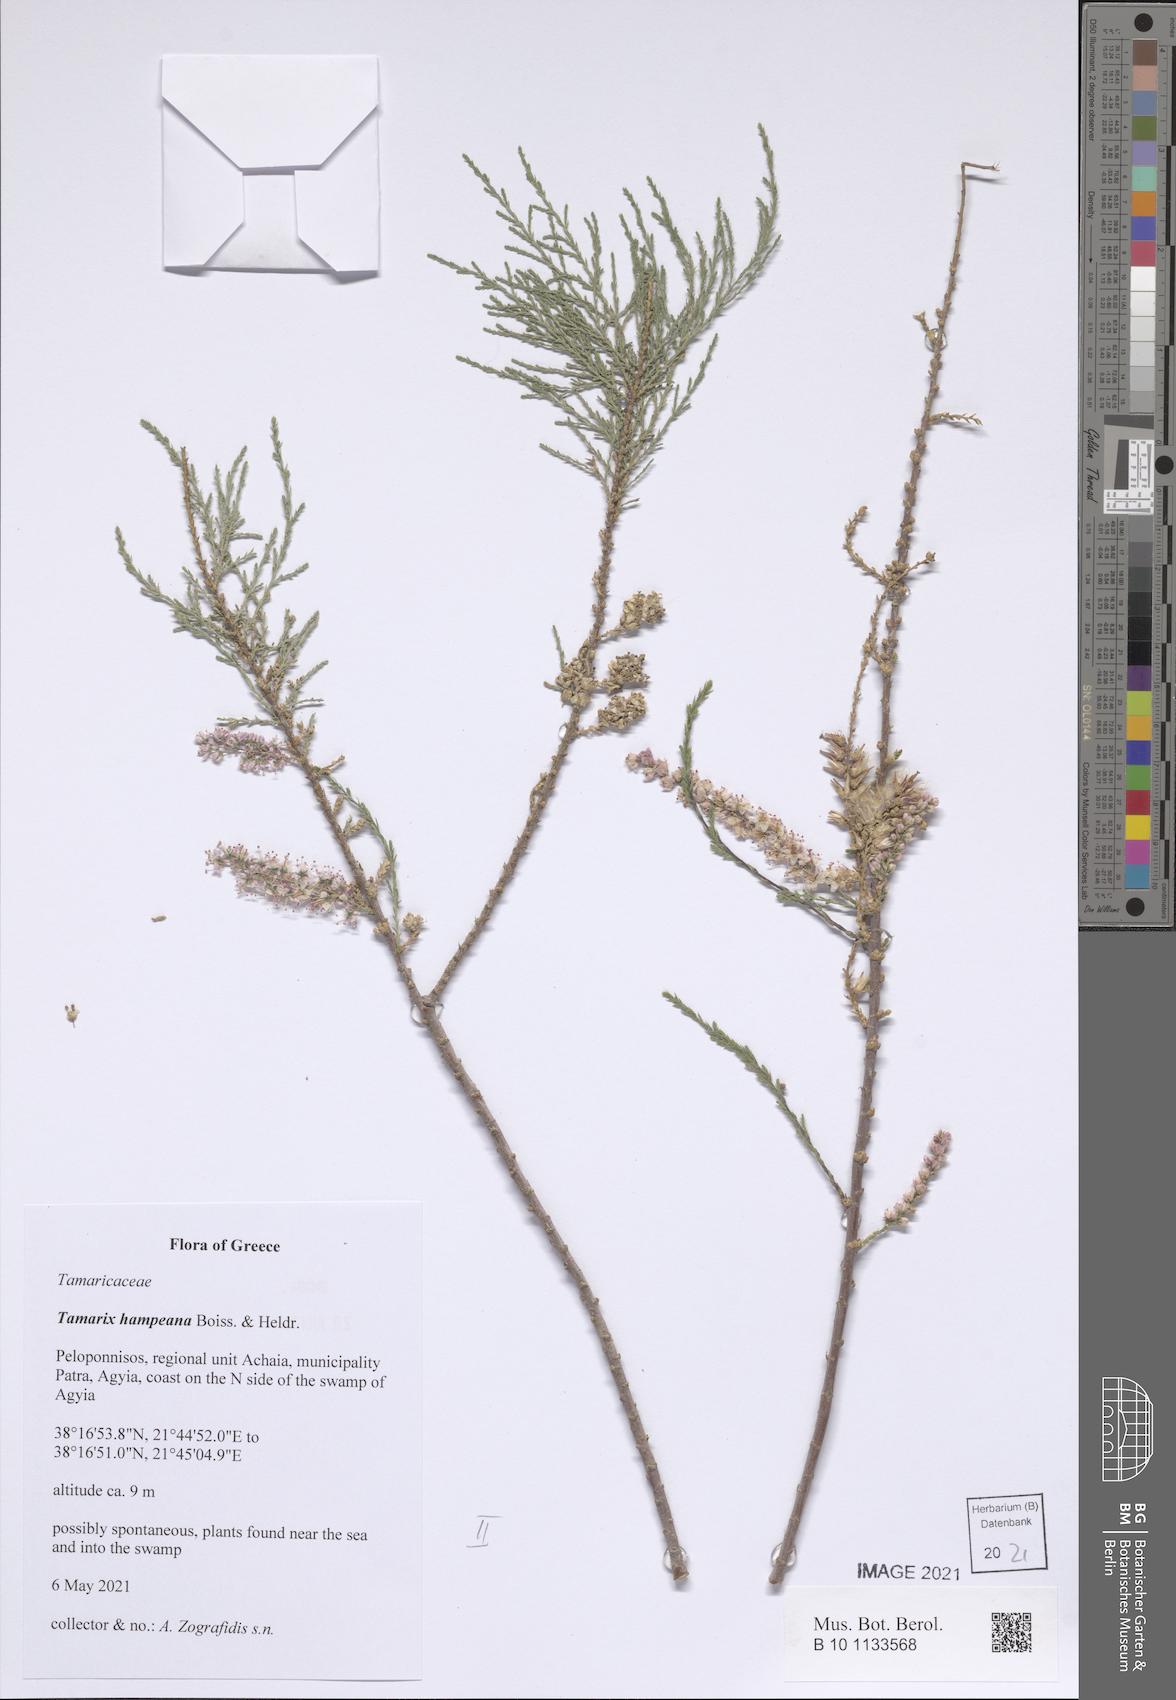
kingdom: Plantae
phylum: Tracheophyta
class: Magnoliopsida
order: Caryophyllales
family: Tamaricaceae
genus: Tamarix
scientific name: Tamarix hampeana
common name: Hampe’s tamarisk
